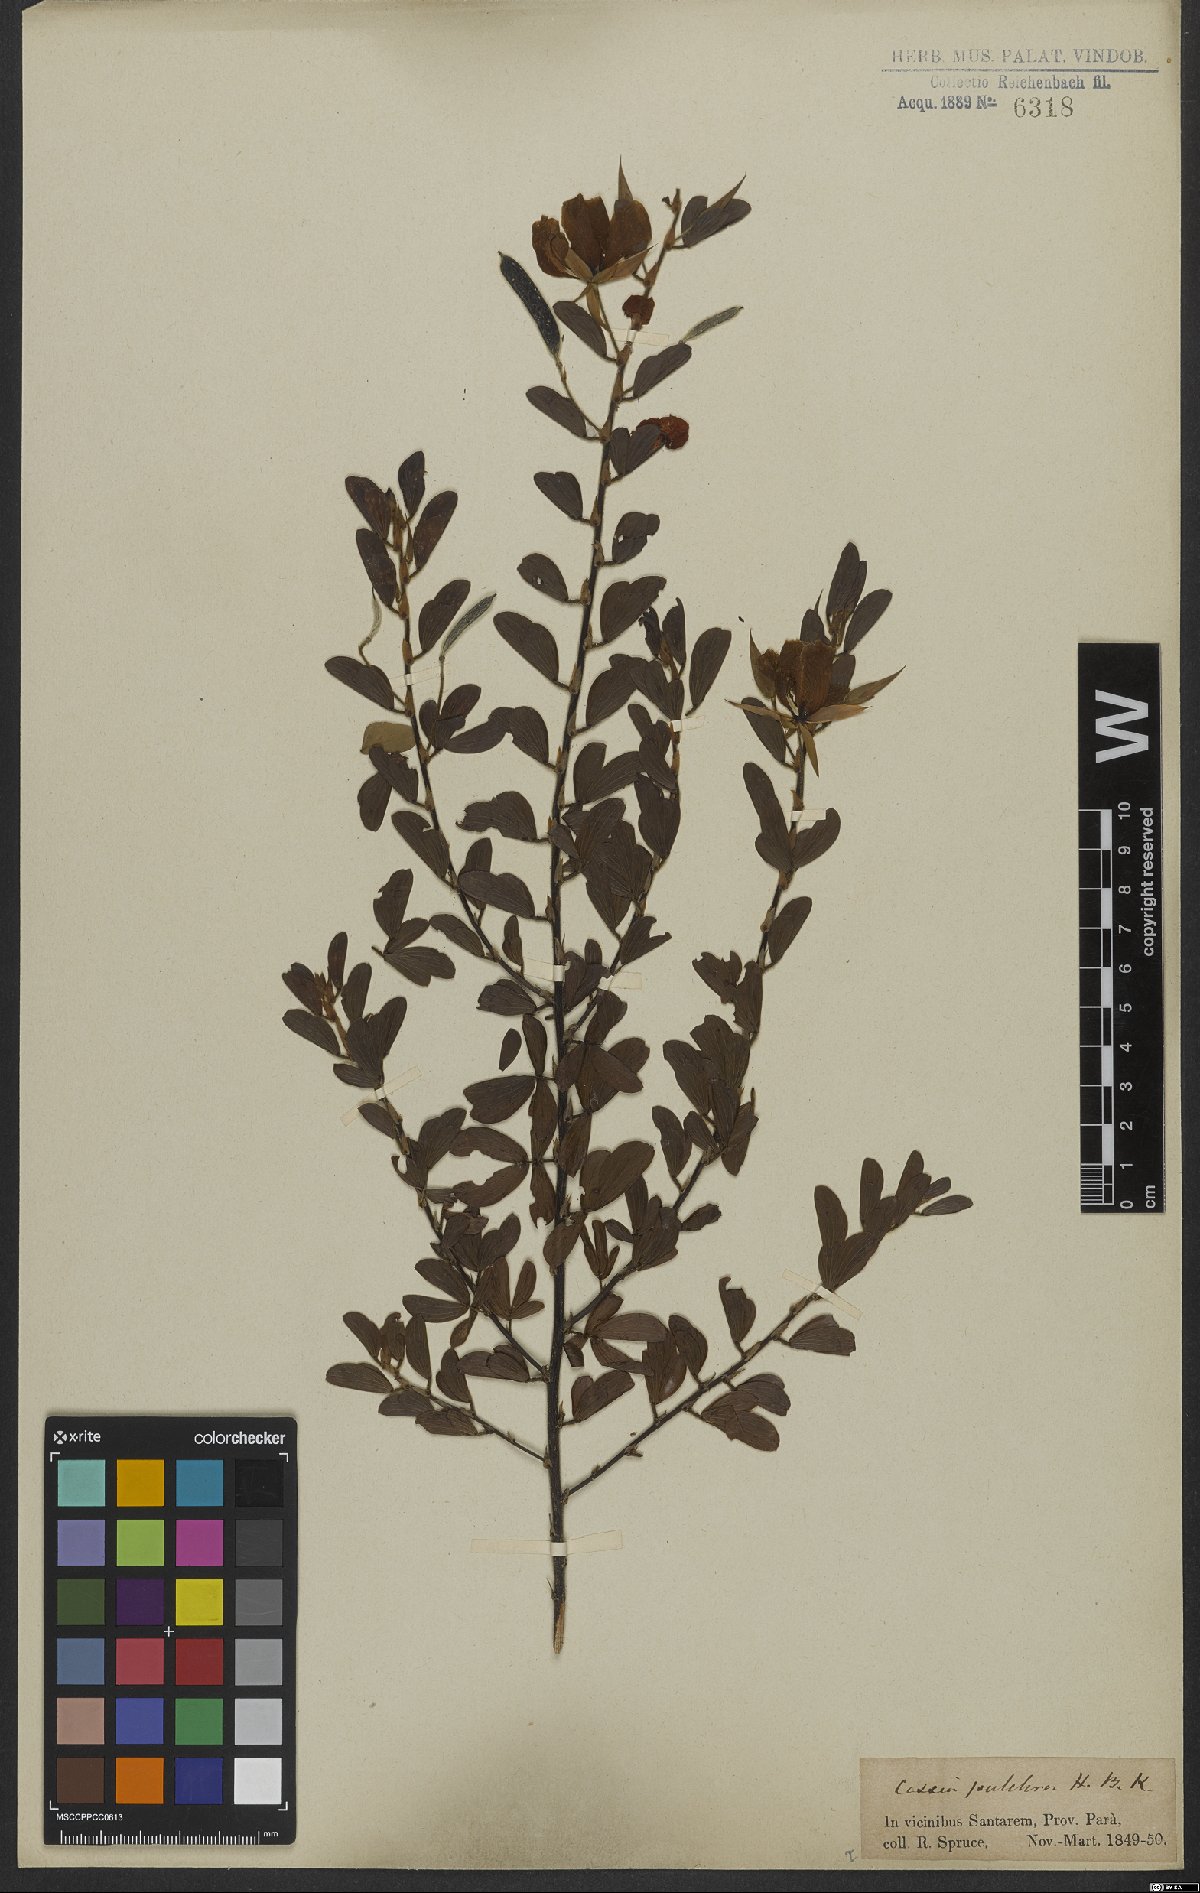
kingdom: Plantae
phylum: Tracheophyta
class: Magnoliopsida
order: Fabales
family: Fabaceae
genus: Chamaecrista
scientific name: Chamaecrista desvauxii
